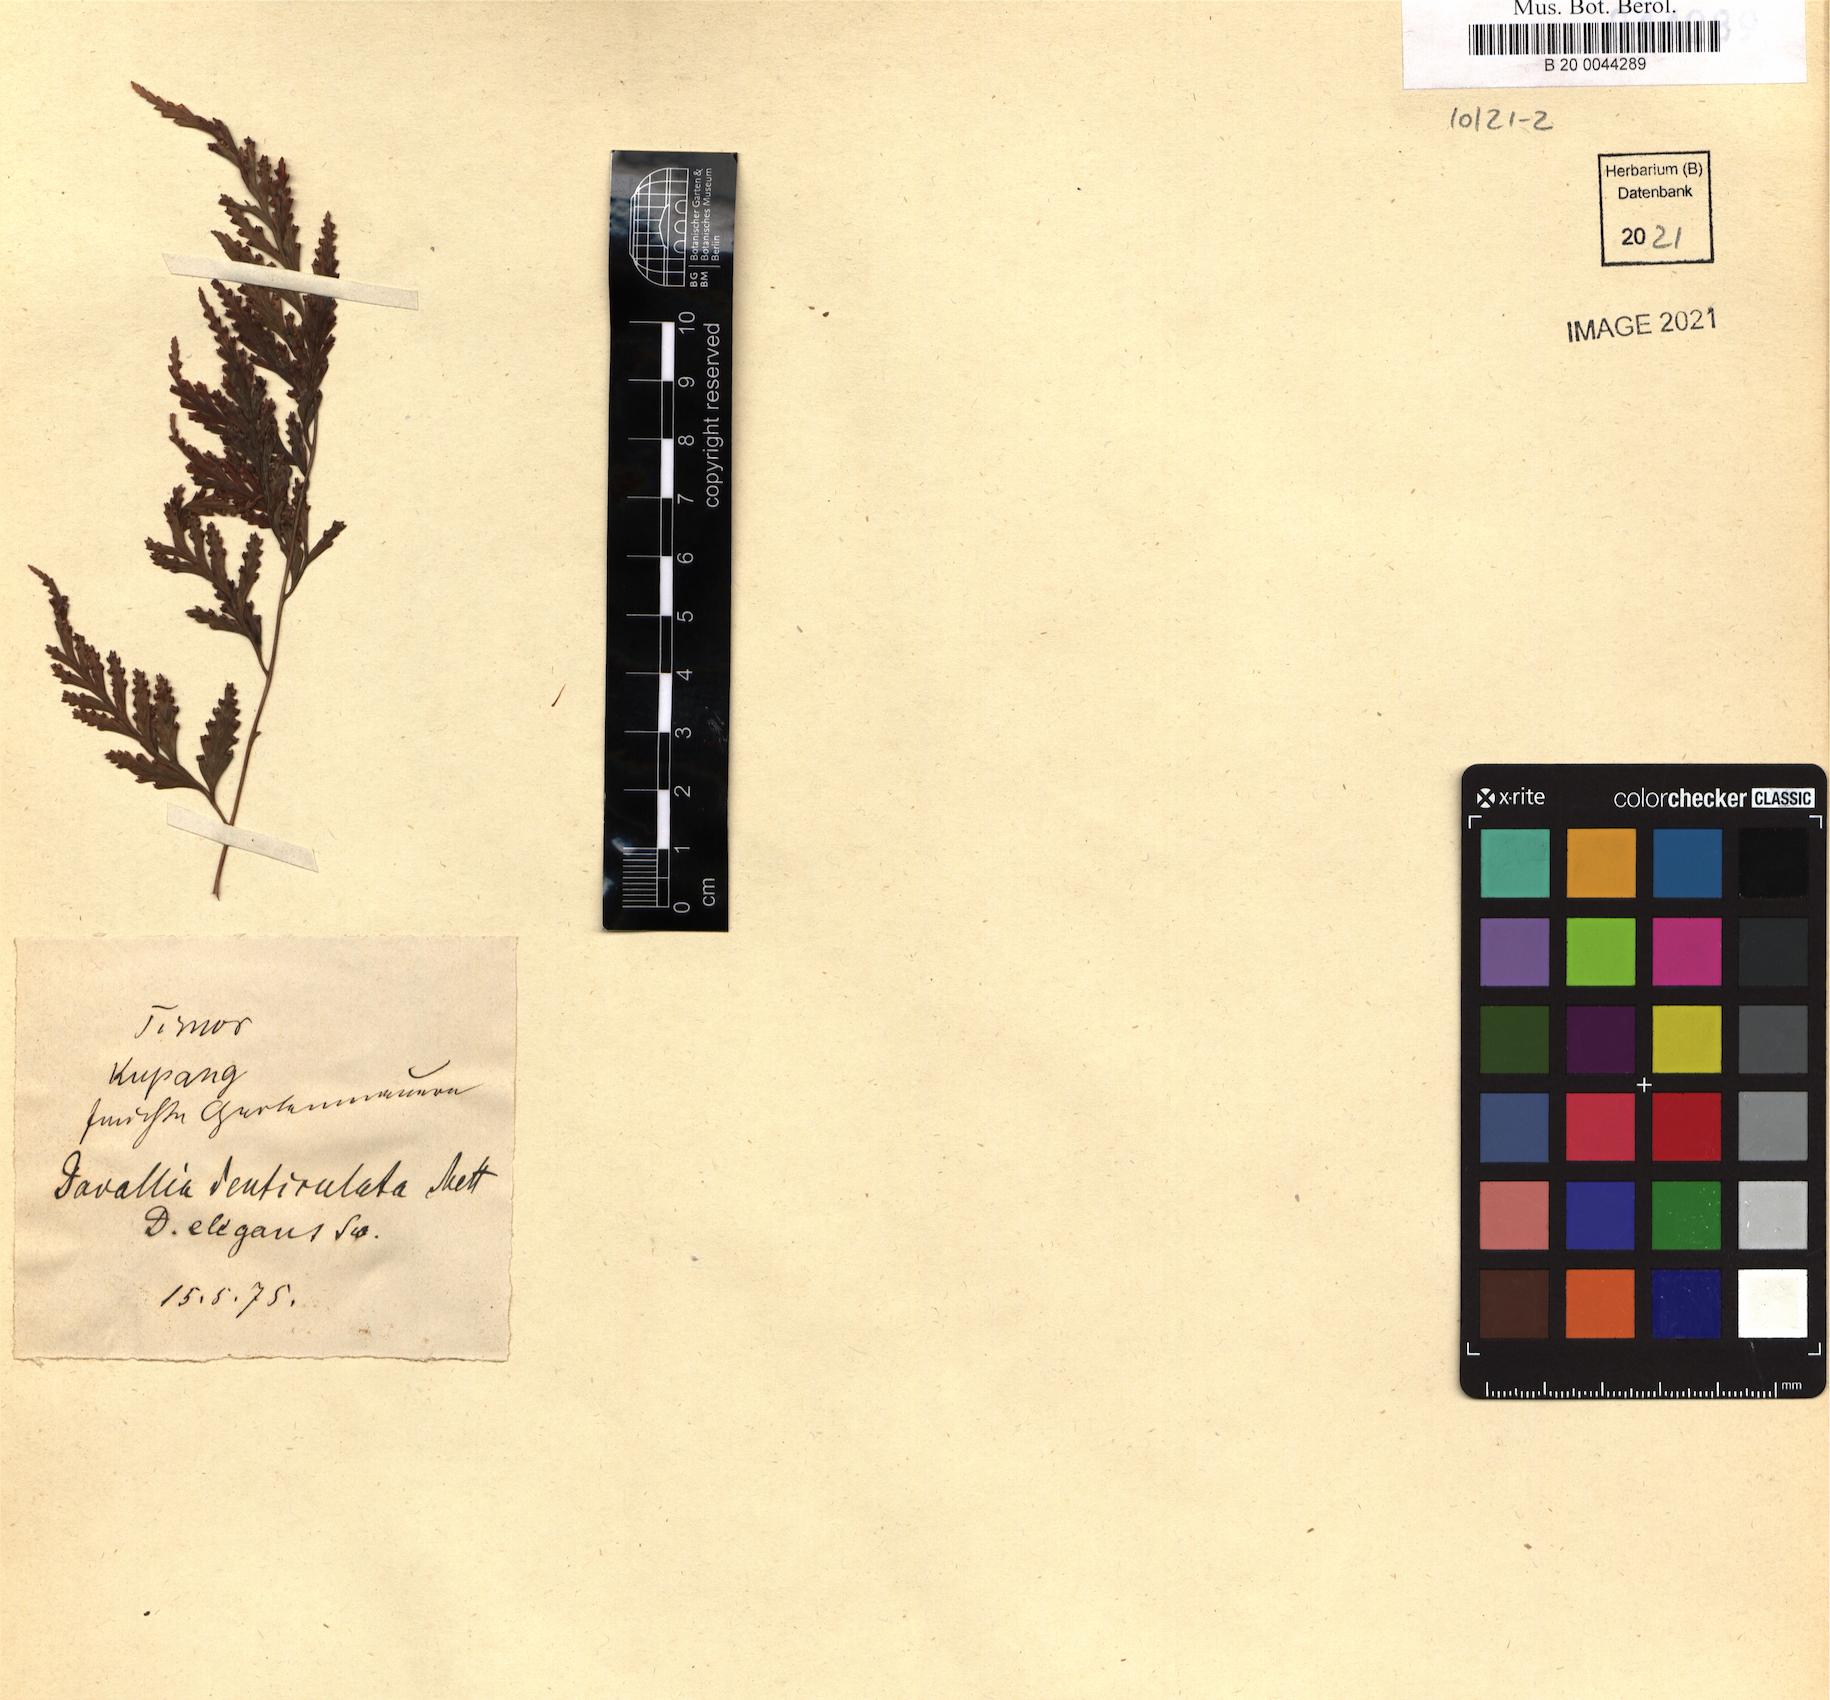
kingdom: Plantae
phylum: Tracheophyta
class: Polypodiopsida
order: Polypodiales
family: Davalliaceae
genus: Davallia
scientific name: Davallia denticulata
